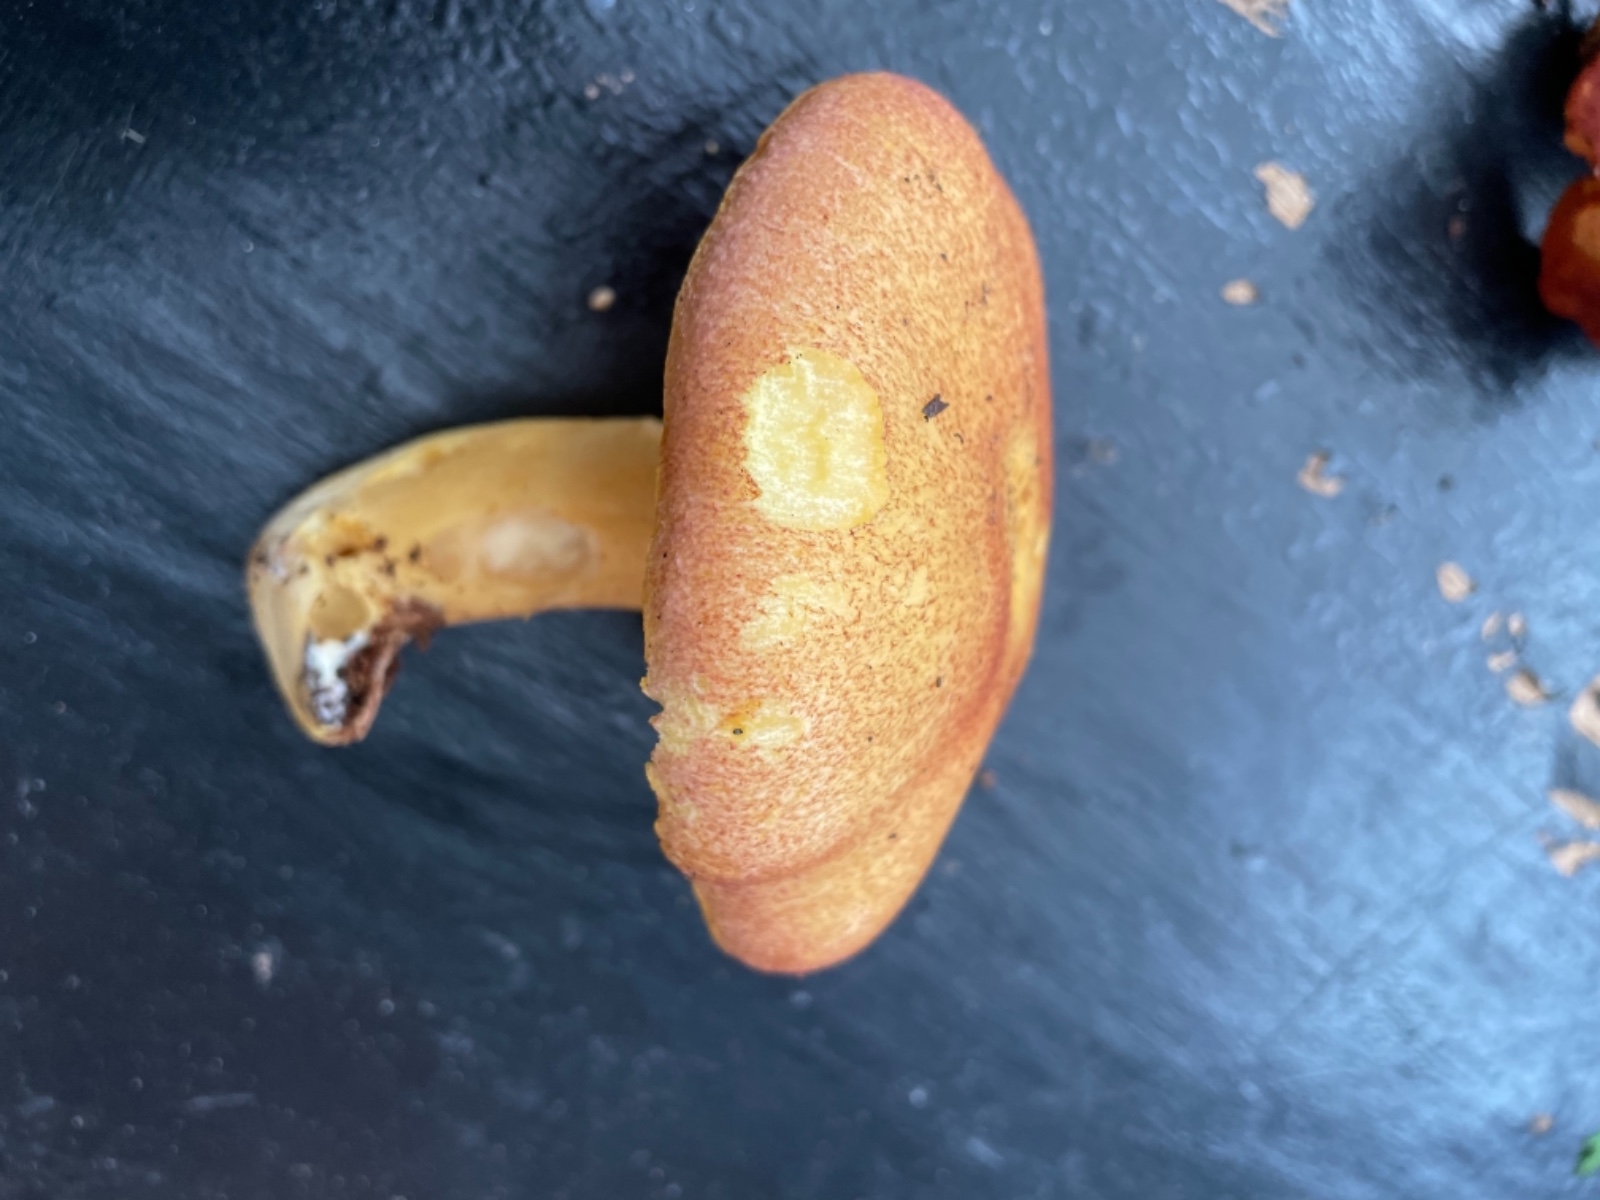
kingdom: Fungi
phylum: Basidiomycota
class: Agaricomycetes
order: Agaricales
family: Tricholomataceae
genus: Tricholomopsis
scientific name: Tricholomopsis rutilans
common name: purpur-væbnerhat
